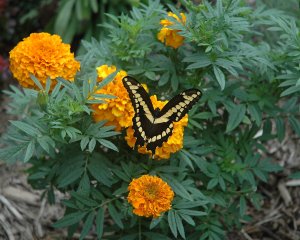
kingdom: Animalia
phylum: Arthropoda
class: Insecta
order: Lepidoptera
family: Papilionidae
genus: Papilio
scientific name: Papilio cresphontes
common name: Eastern Giant Swallowtail
